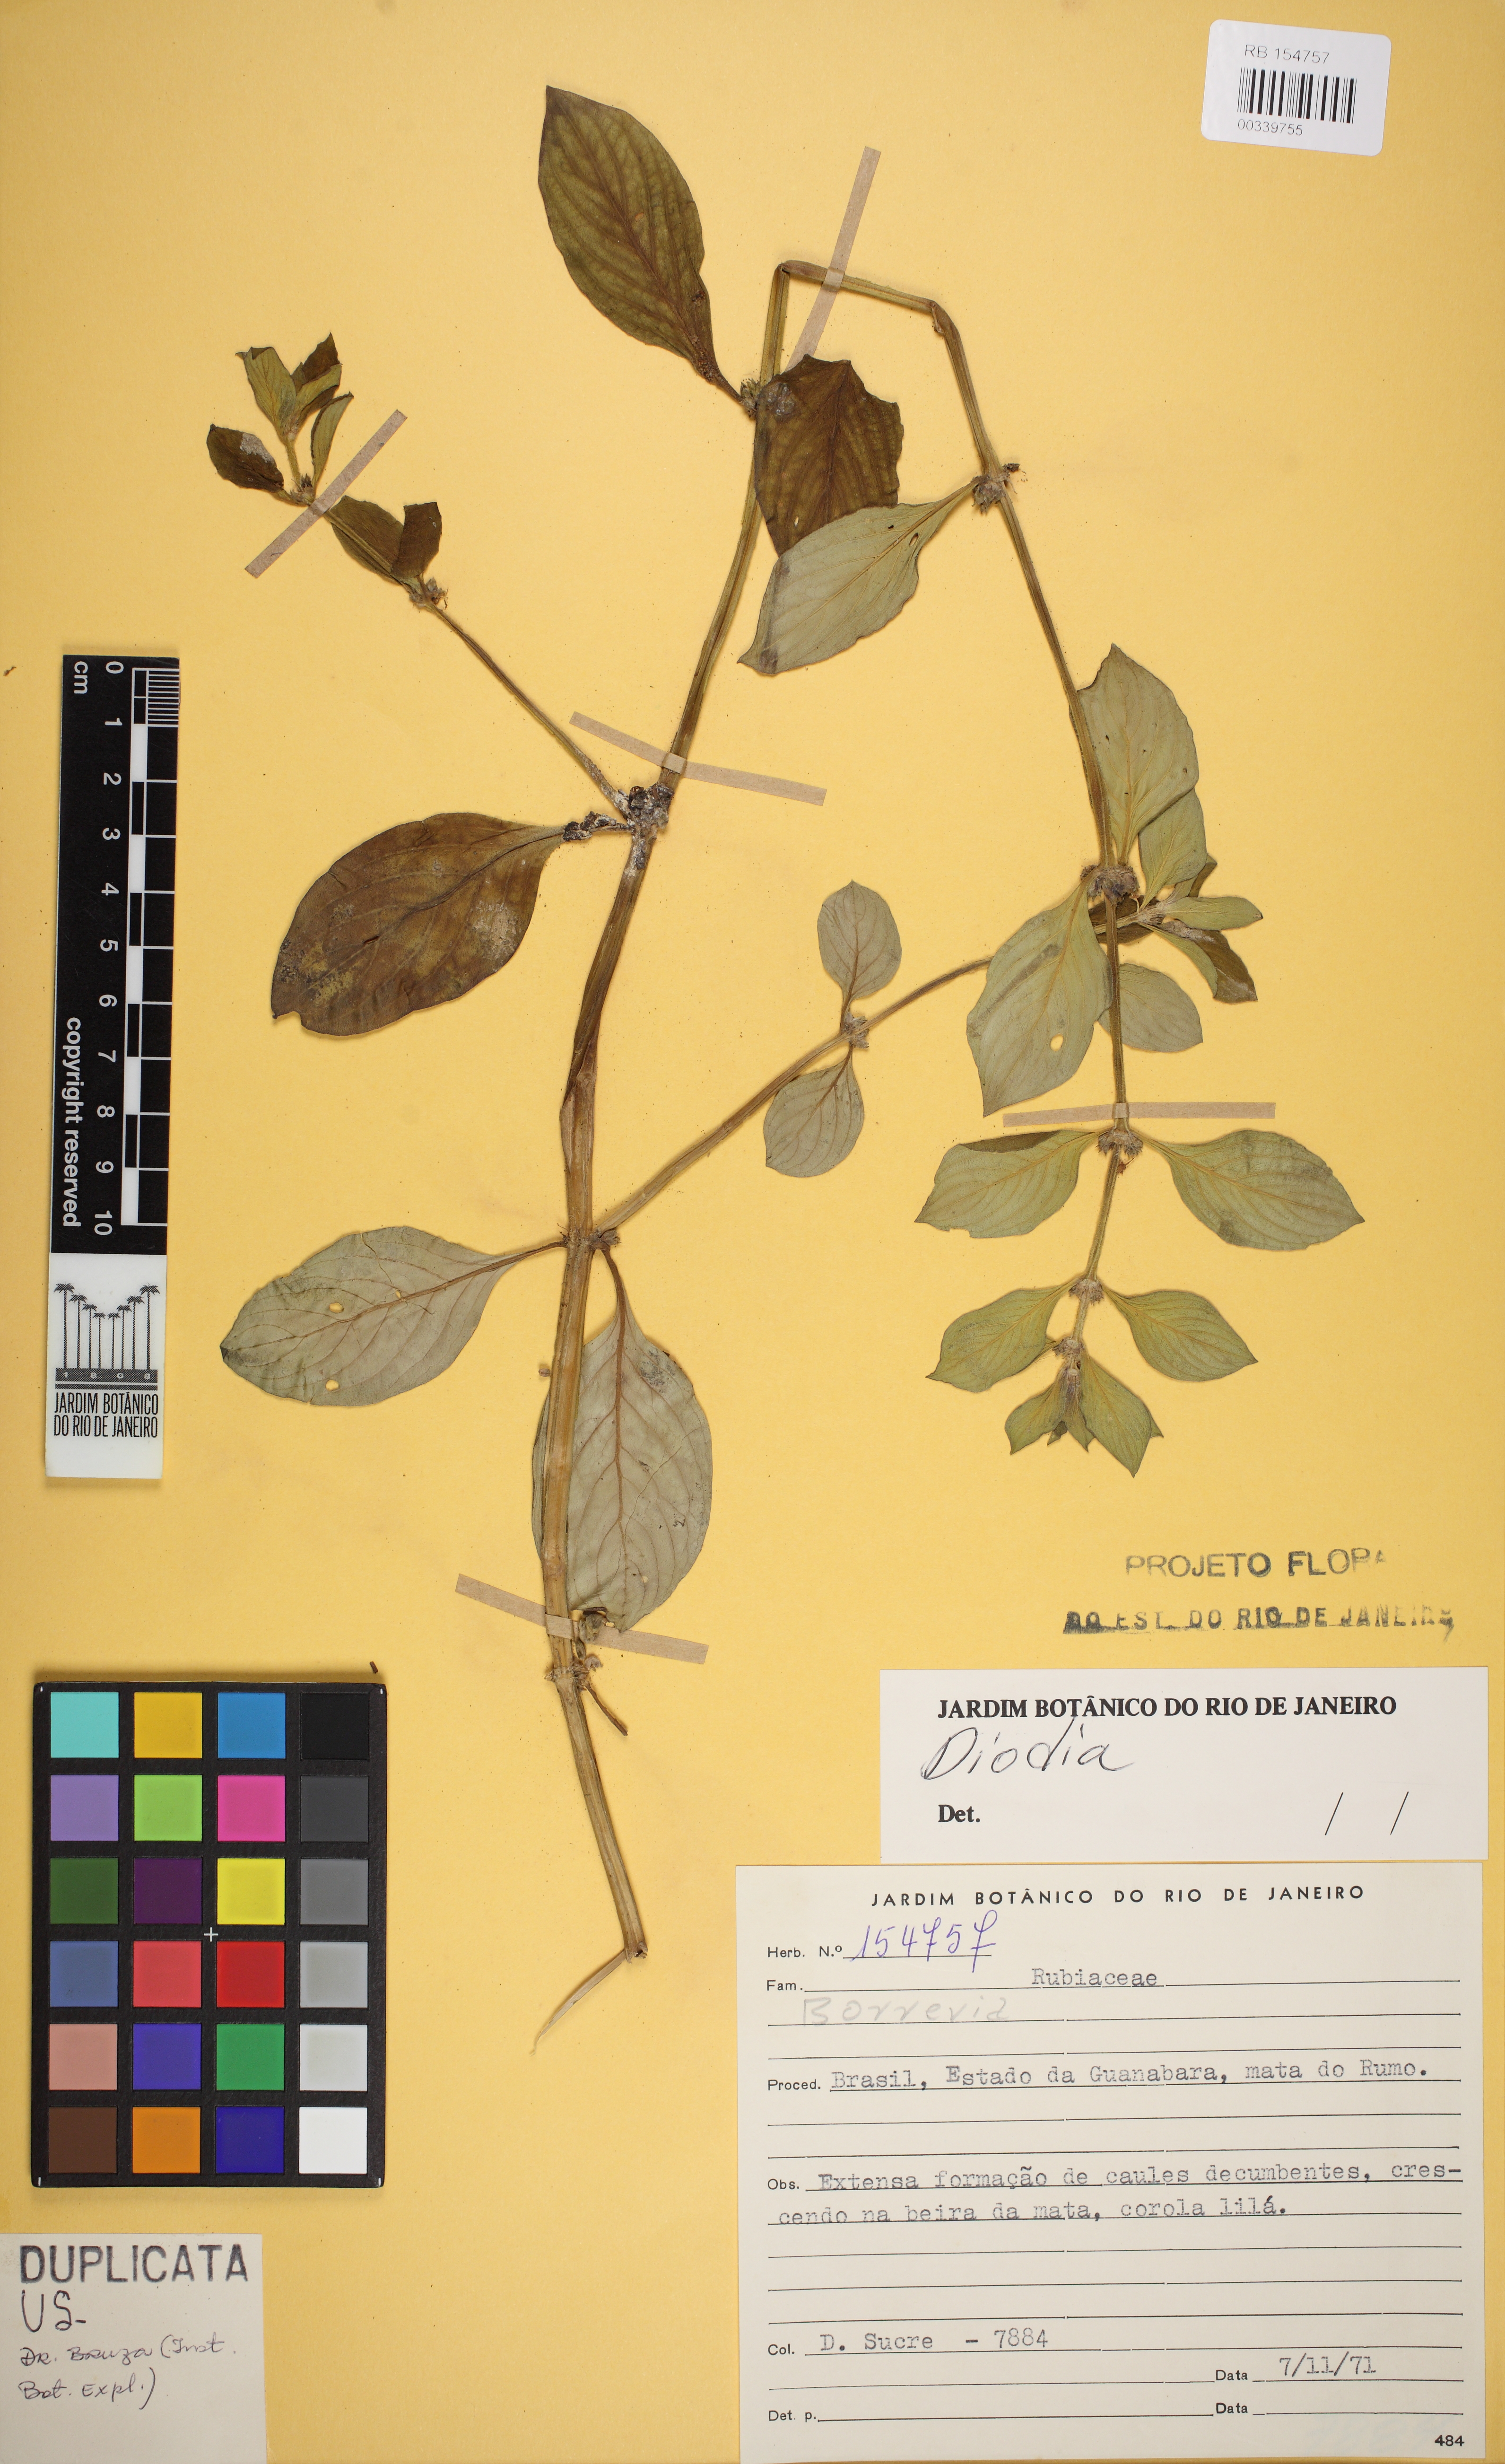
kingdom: Plantae
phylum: Tracheophyta
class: Magnoliopsida
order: Gentianales
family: Rubiaceae
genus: Spermacoce
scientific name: Spermacoce alata
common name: Winged false buttonweed
